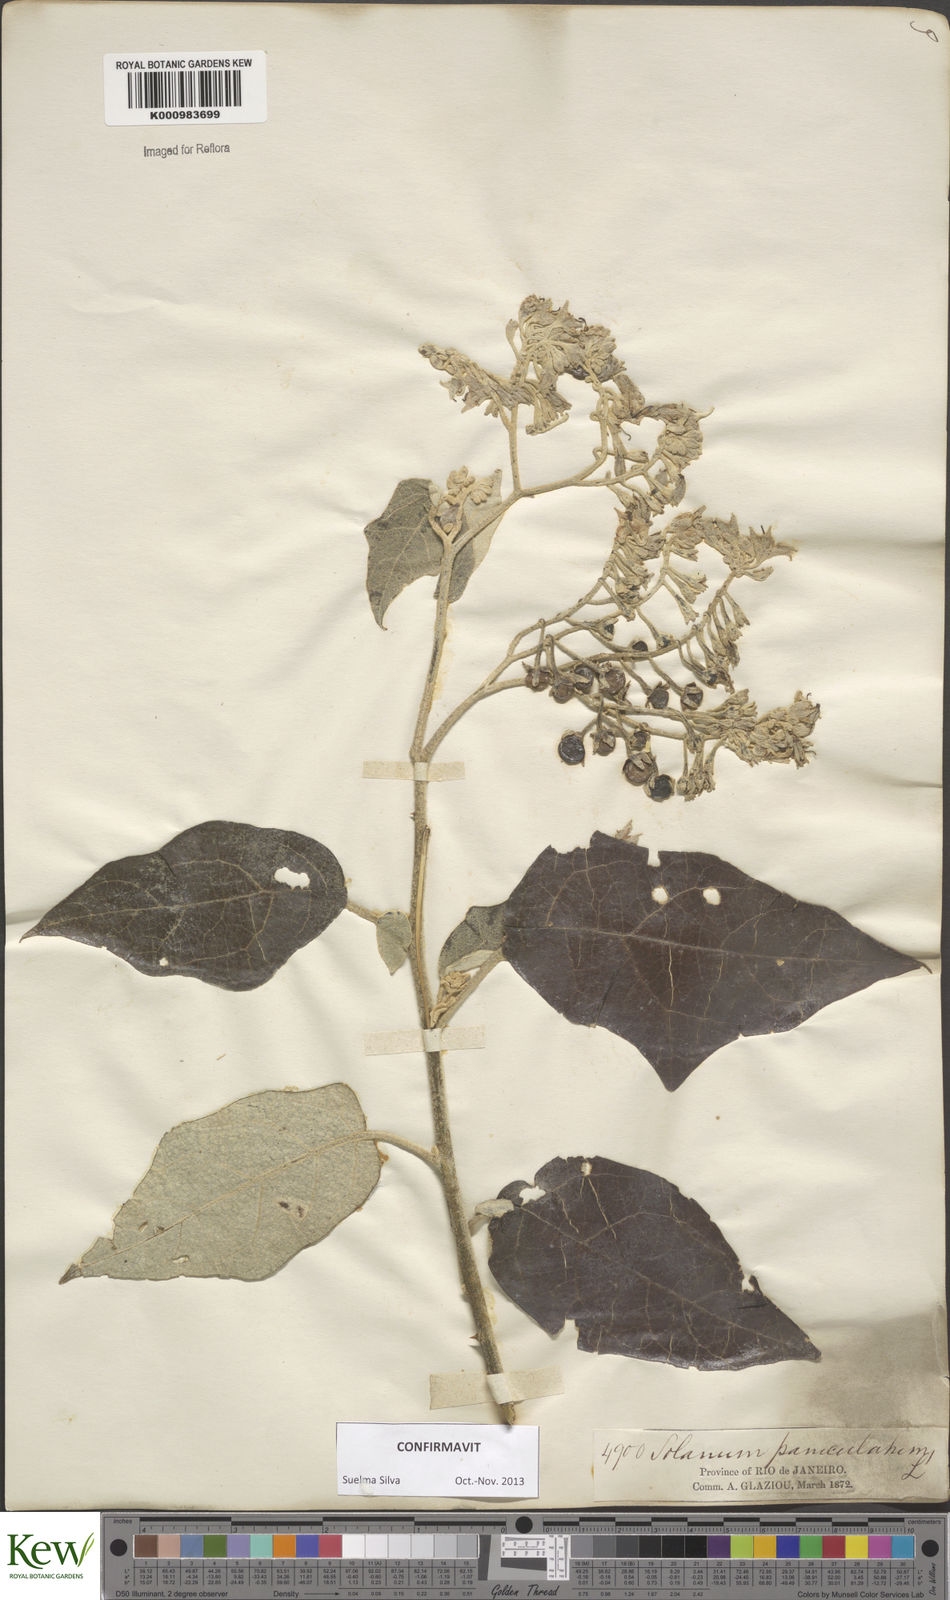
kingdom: Plantae
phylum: Tracheophyta
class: Magnoliopsida
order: Solanales
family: Solanaceae
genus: Solanum
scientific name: Solanum paniculatum
